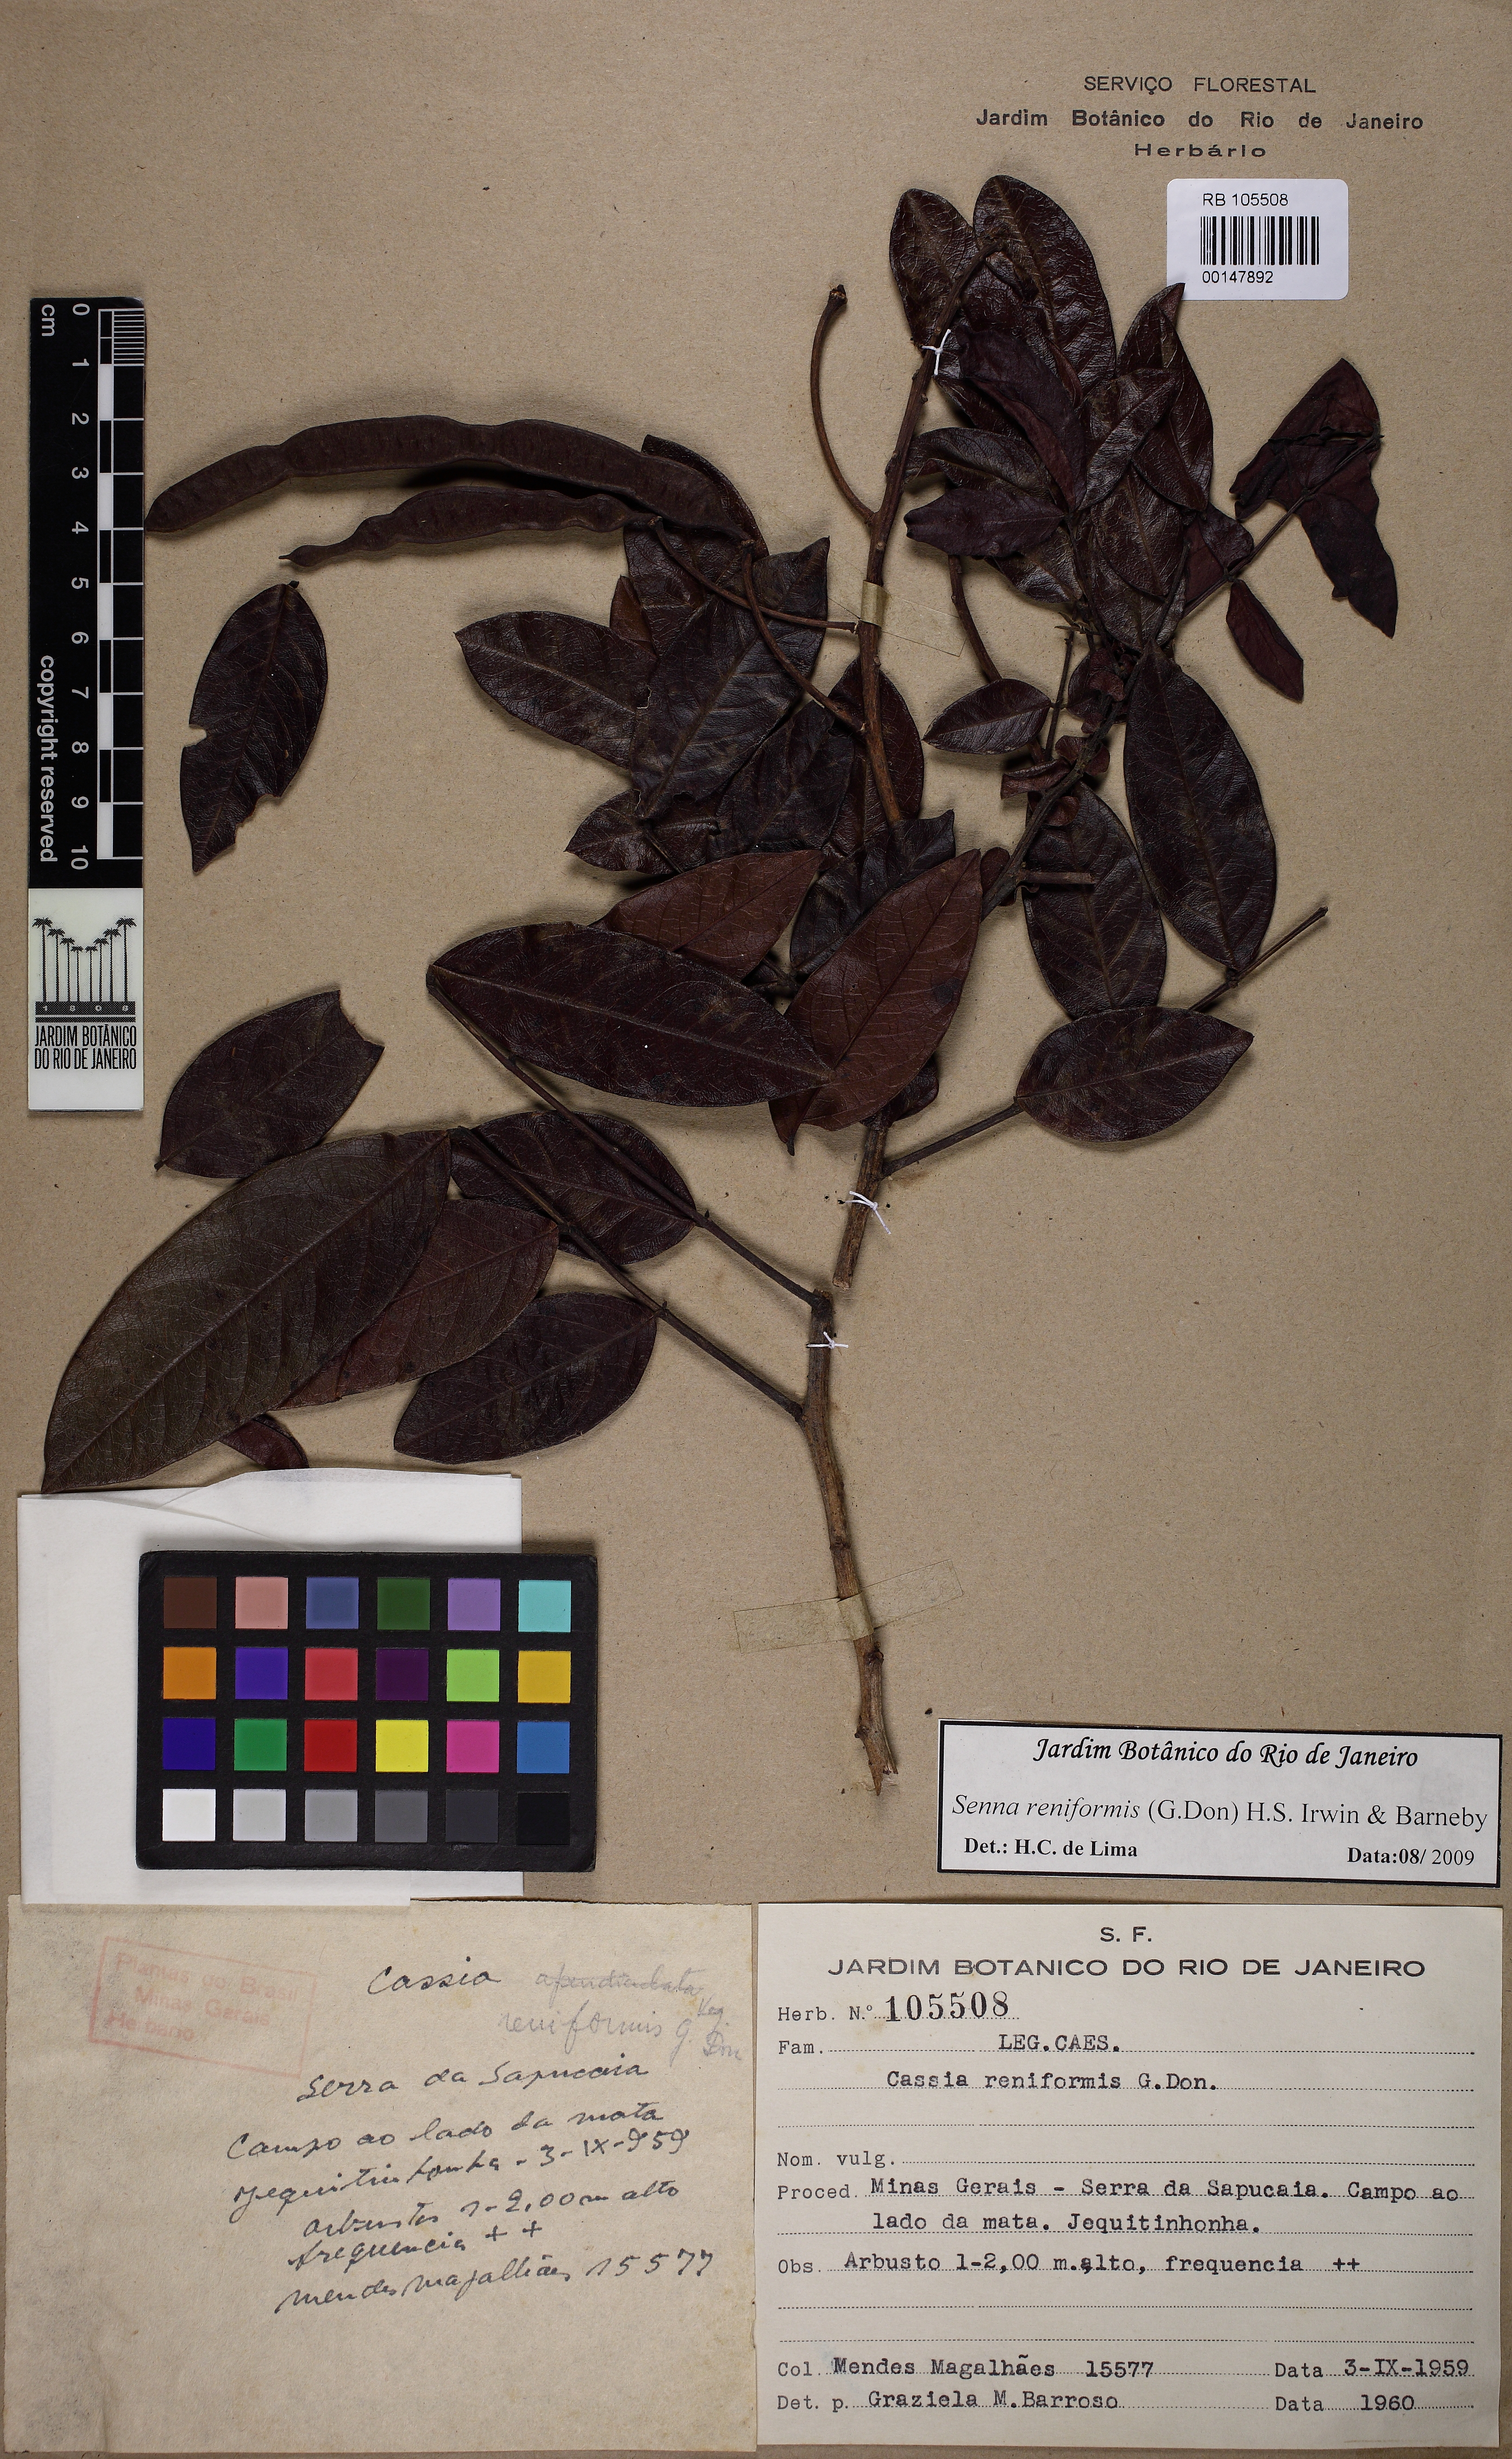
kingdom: Plantae
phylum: Tracheophyta
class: Magnoliopsida
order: Fabales
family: Fabaceae
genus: Senna
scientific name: Senna reniformis
